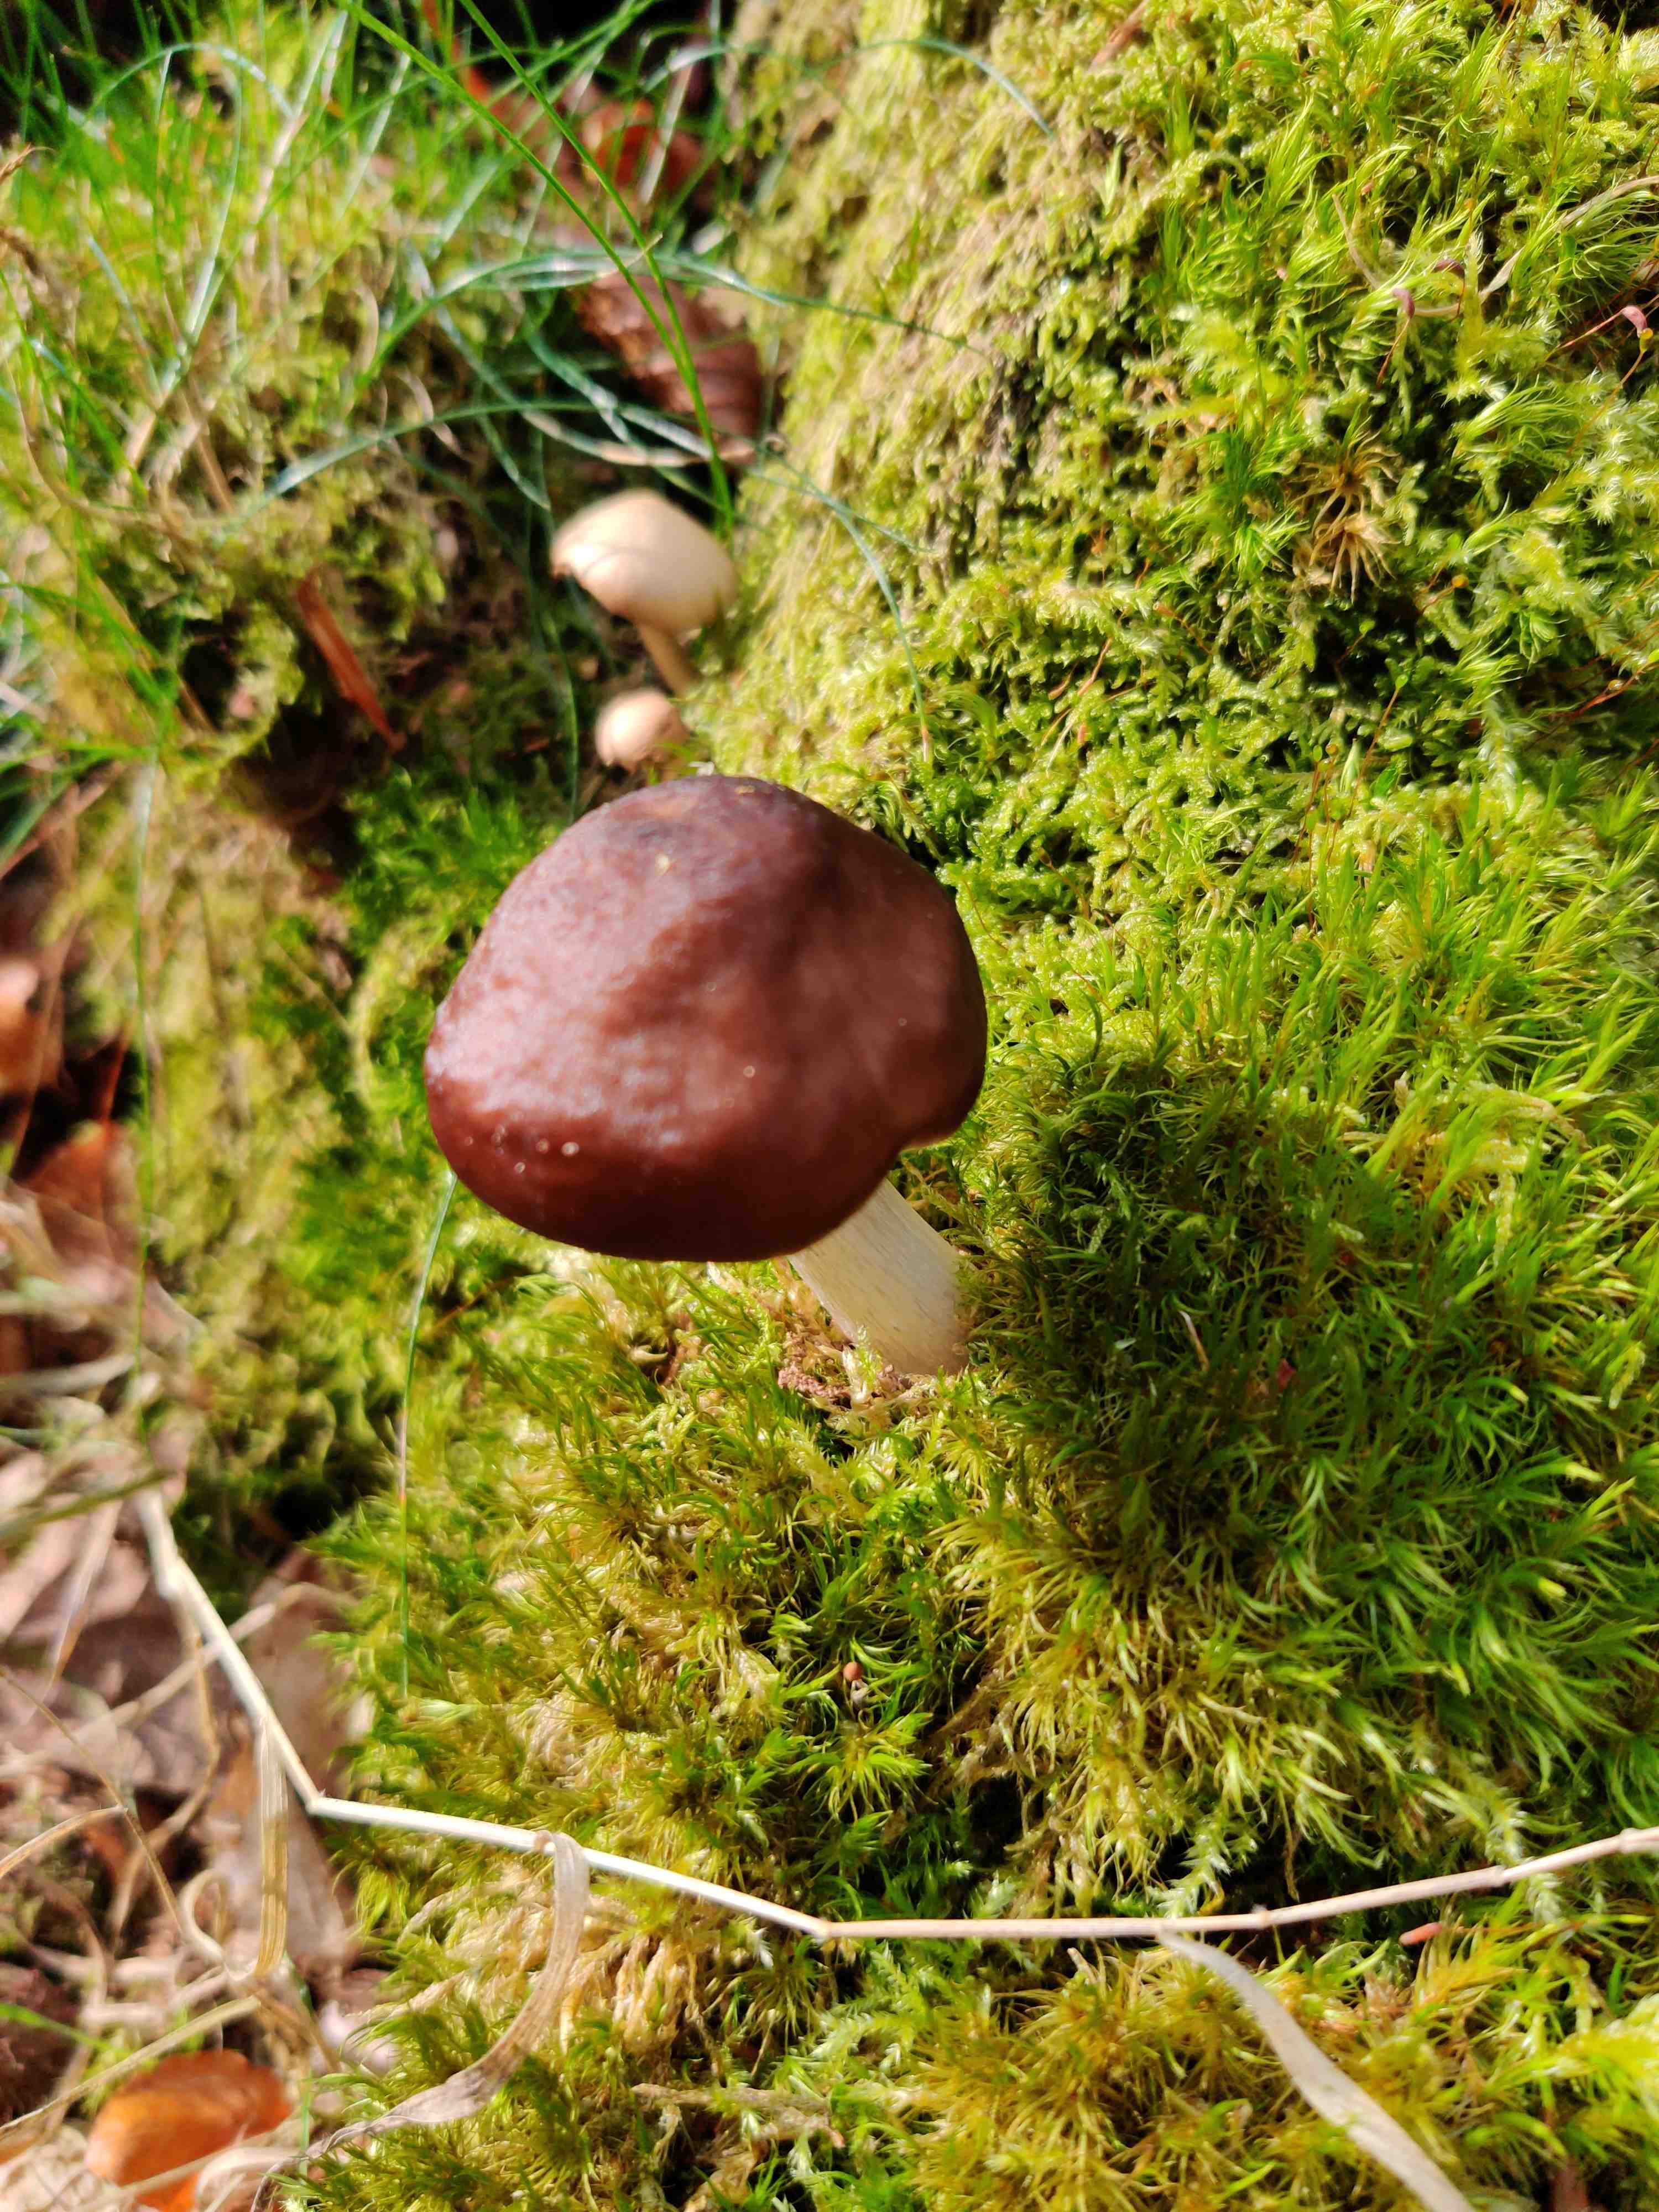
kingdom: Fungi
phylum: Basidiomycota
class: Agaricomycetes
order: Agaricales
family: Pluteaceae
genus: Pluteus
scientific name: Pluteus cervinus
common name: sodfarvet skærmhat
